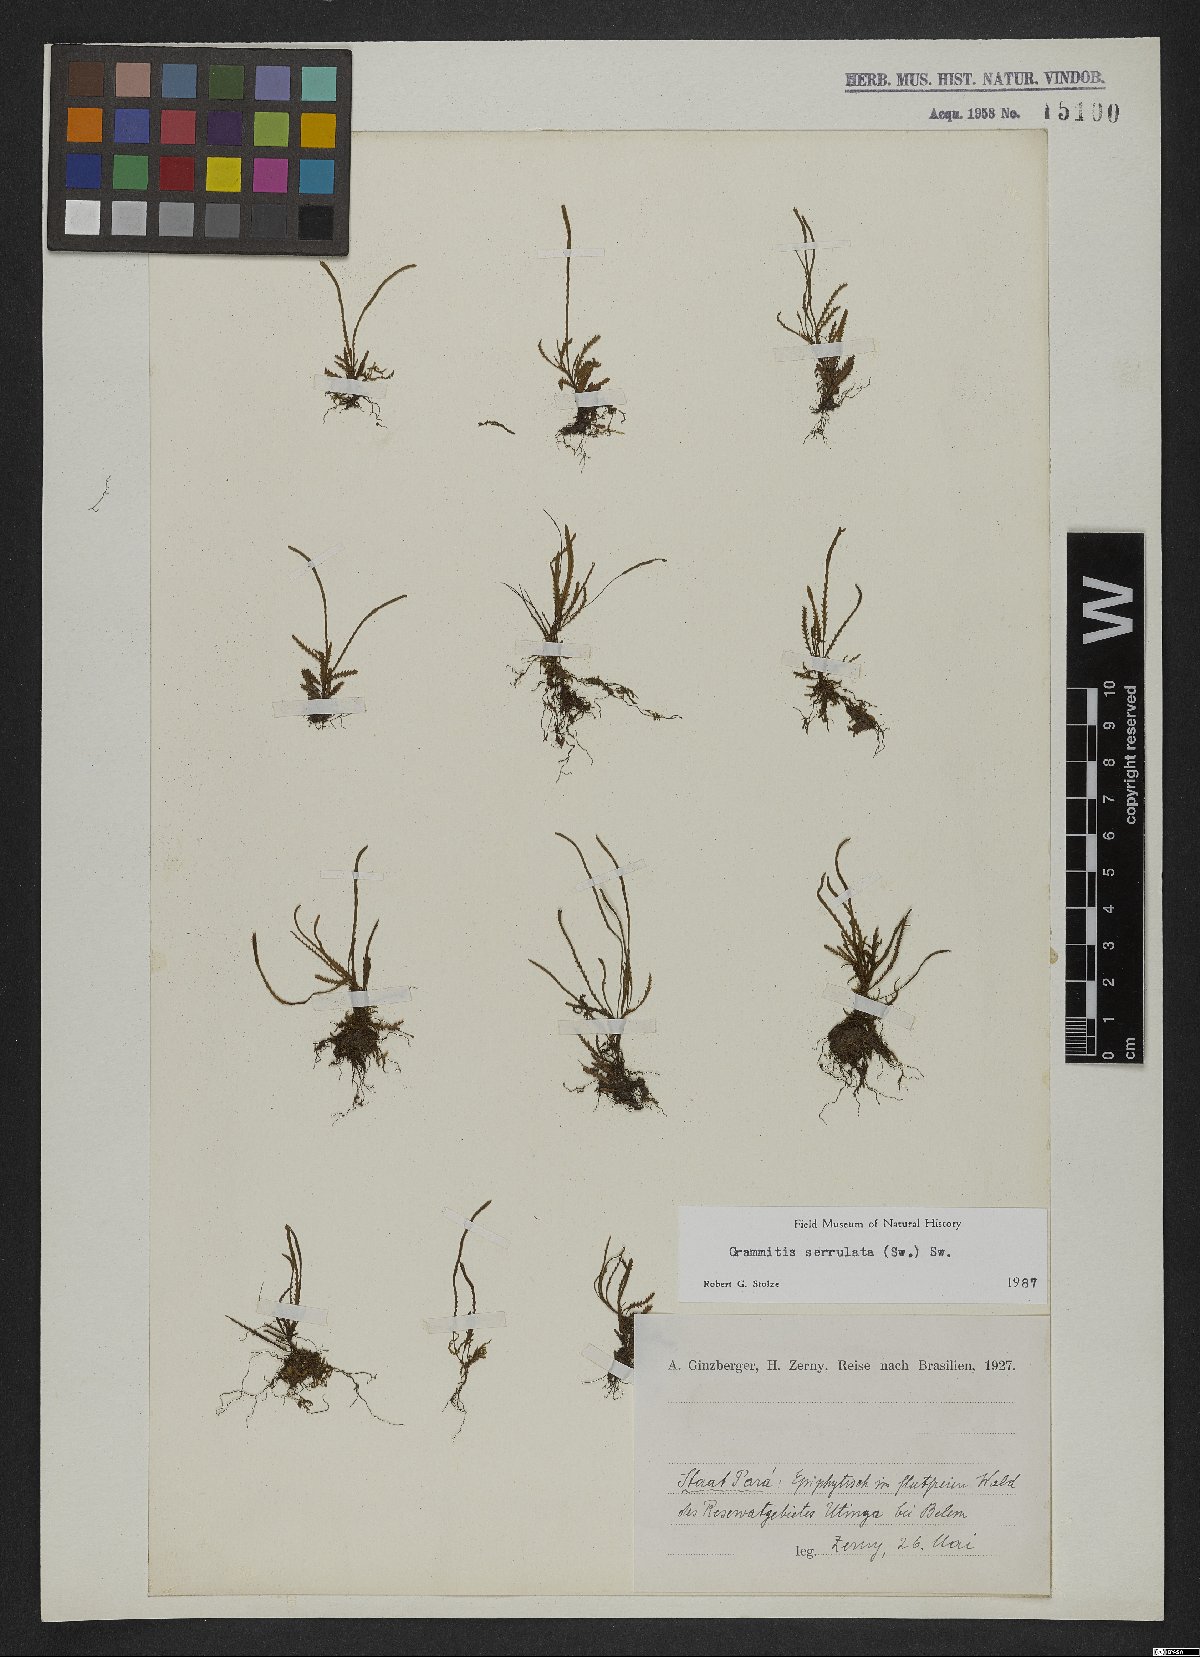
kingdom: Plantae
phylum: Tracheophyta
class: Polypodiopsida
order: Polypodiales
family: Polypodiaceae
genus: Cochlidium
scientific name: Cochlidium serrulatum
